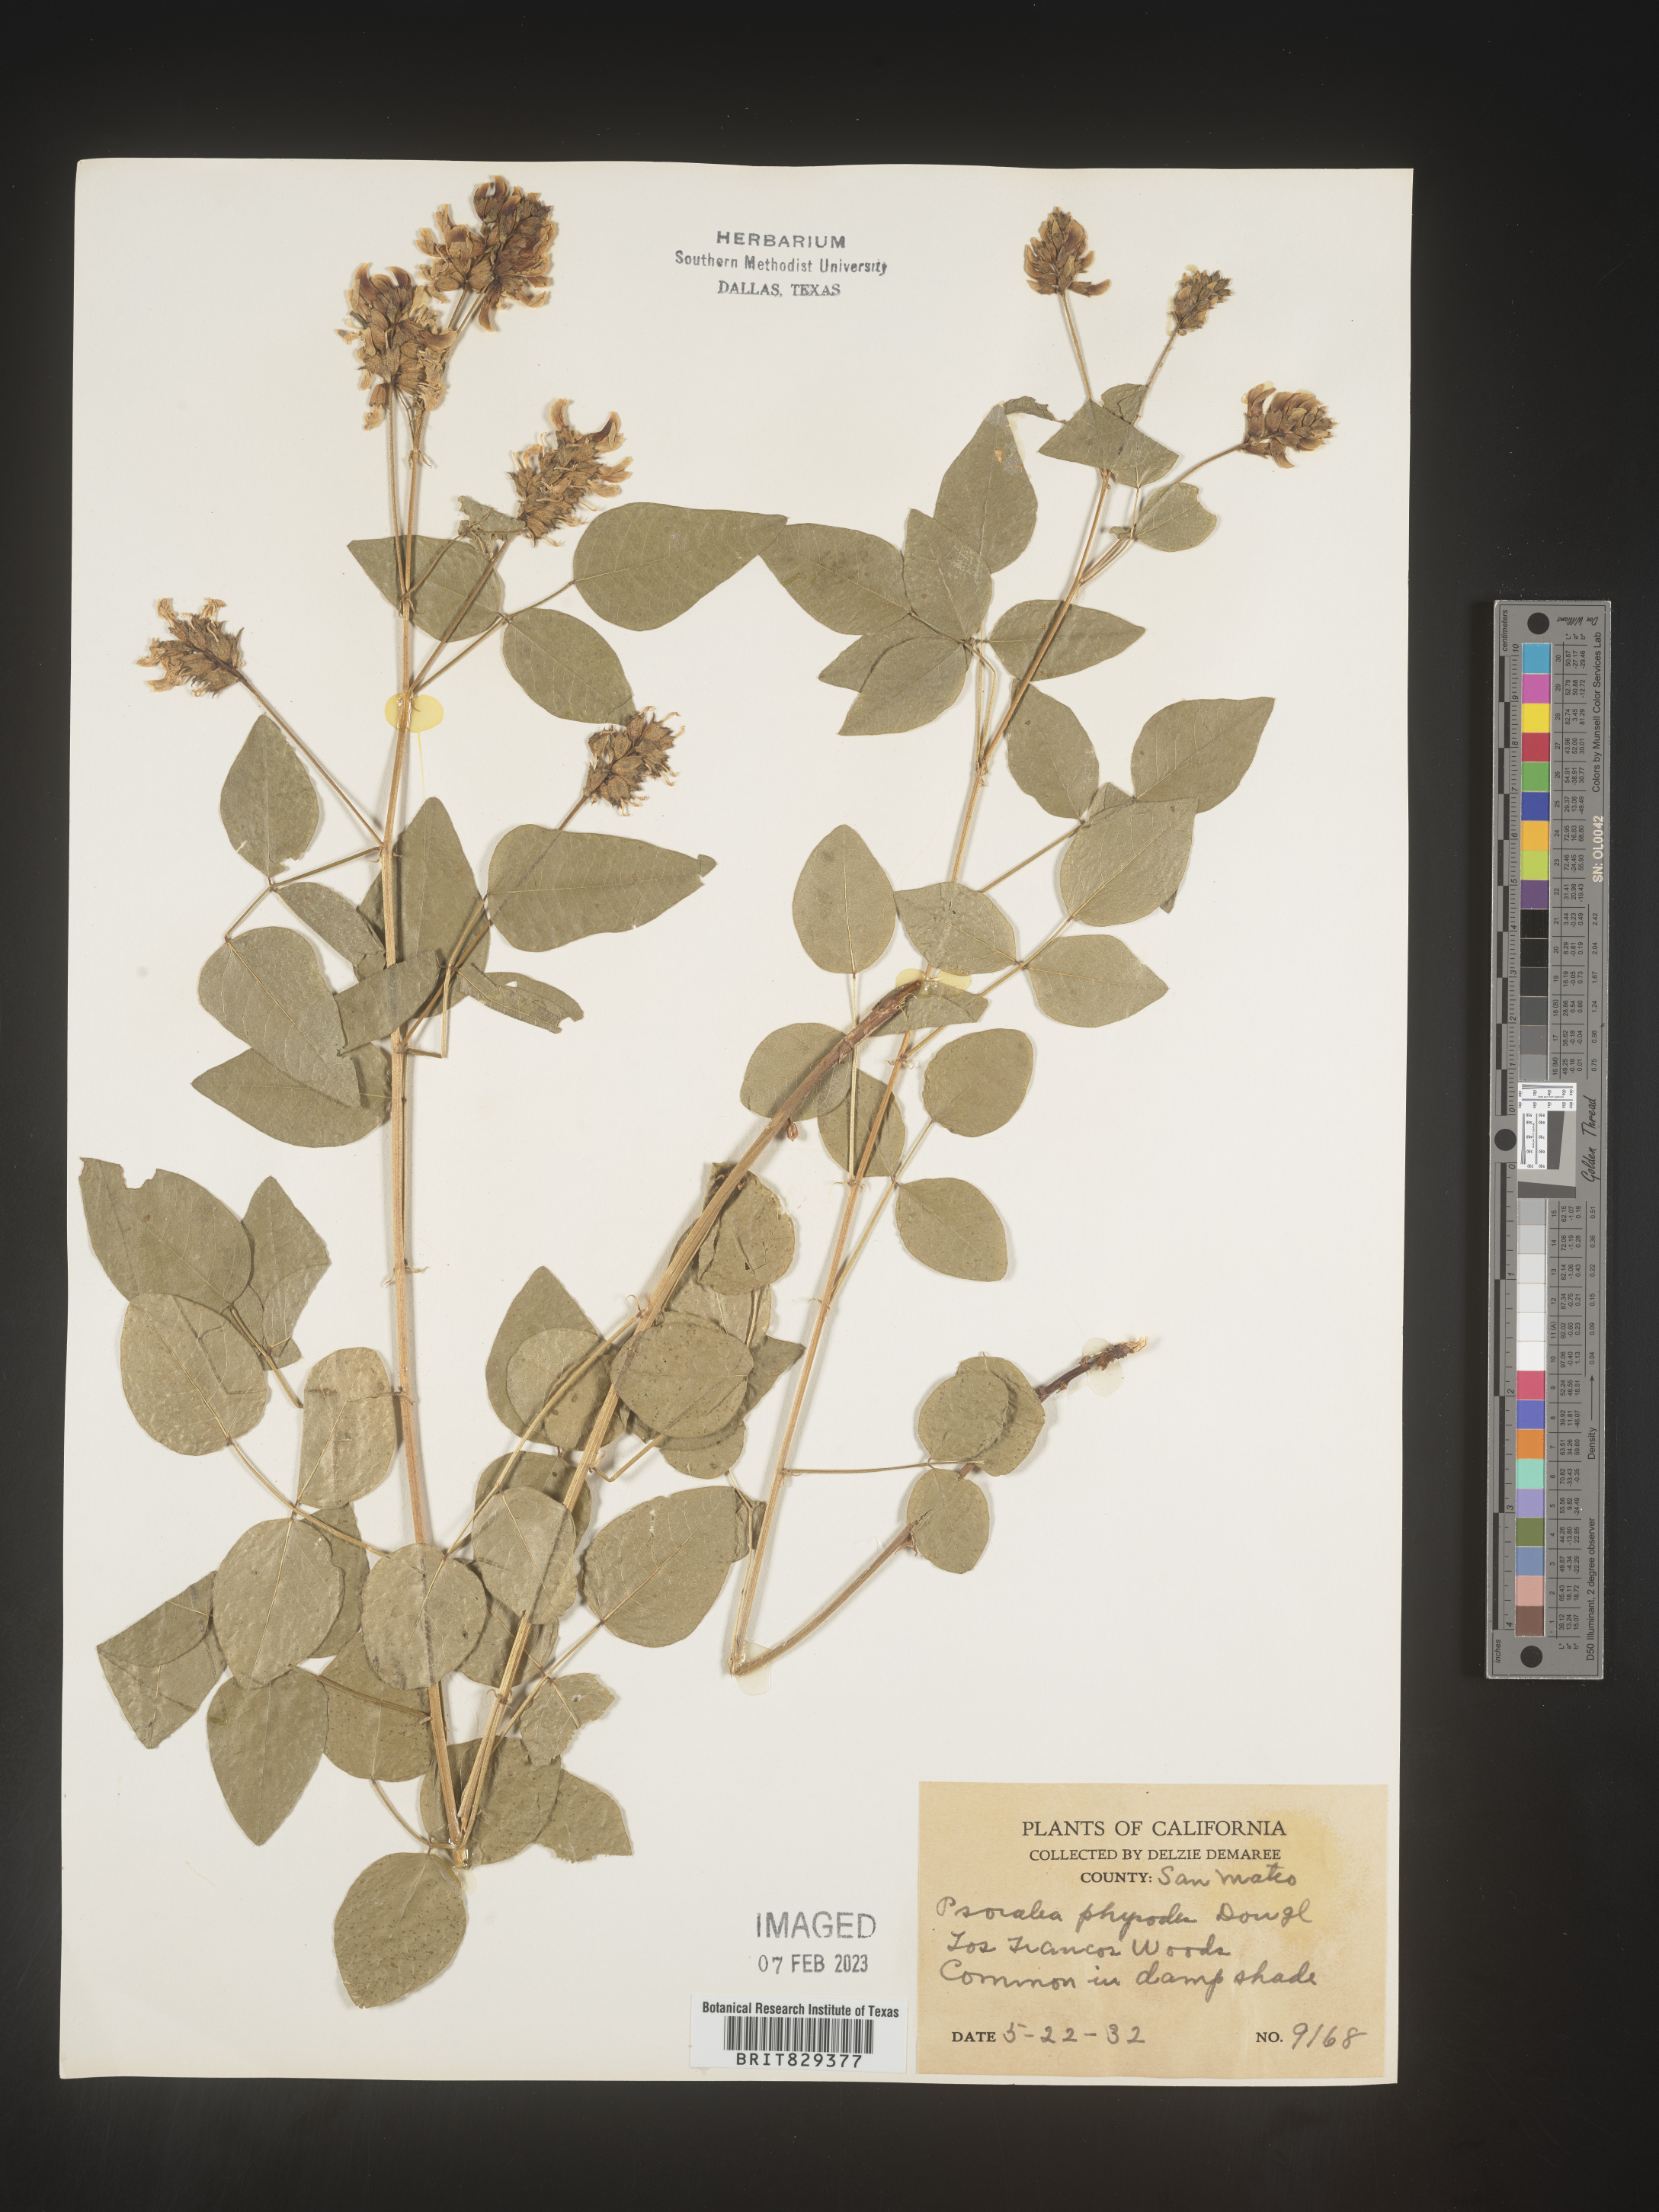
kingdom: Plantae
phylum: Tracheophyta
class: Magnoliopsida
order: Fabales
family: Fabaceae
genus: Psoralea
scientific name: Psoralea
